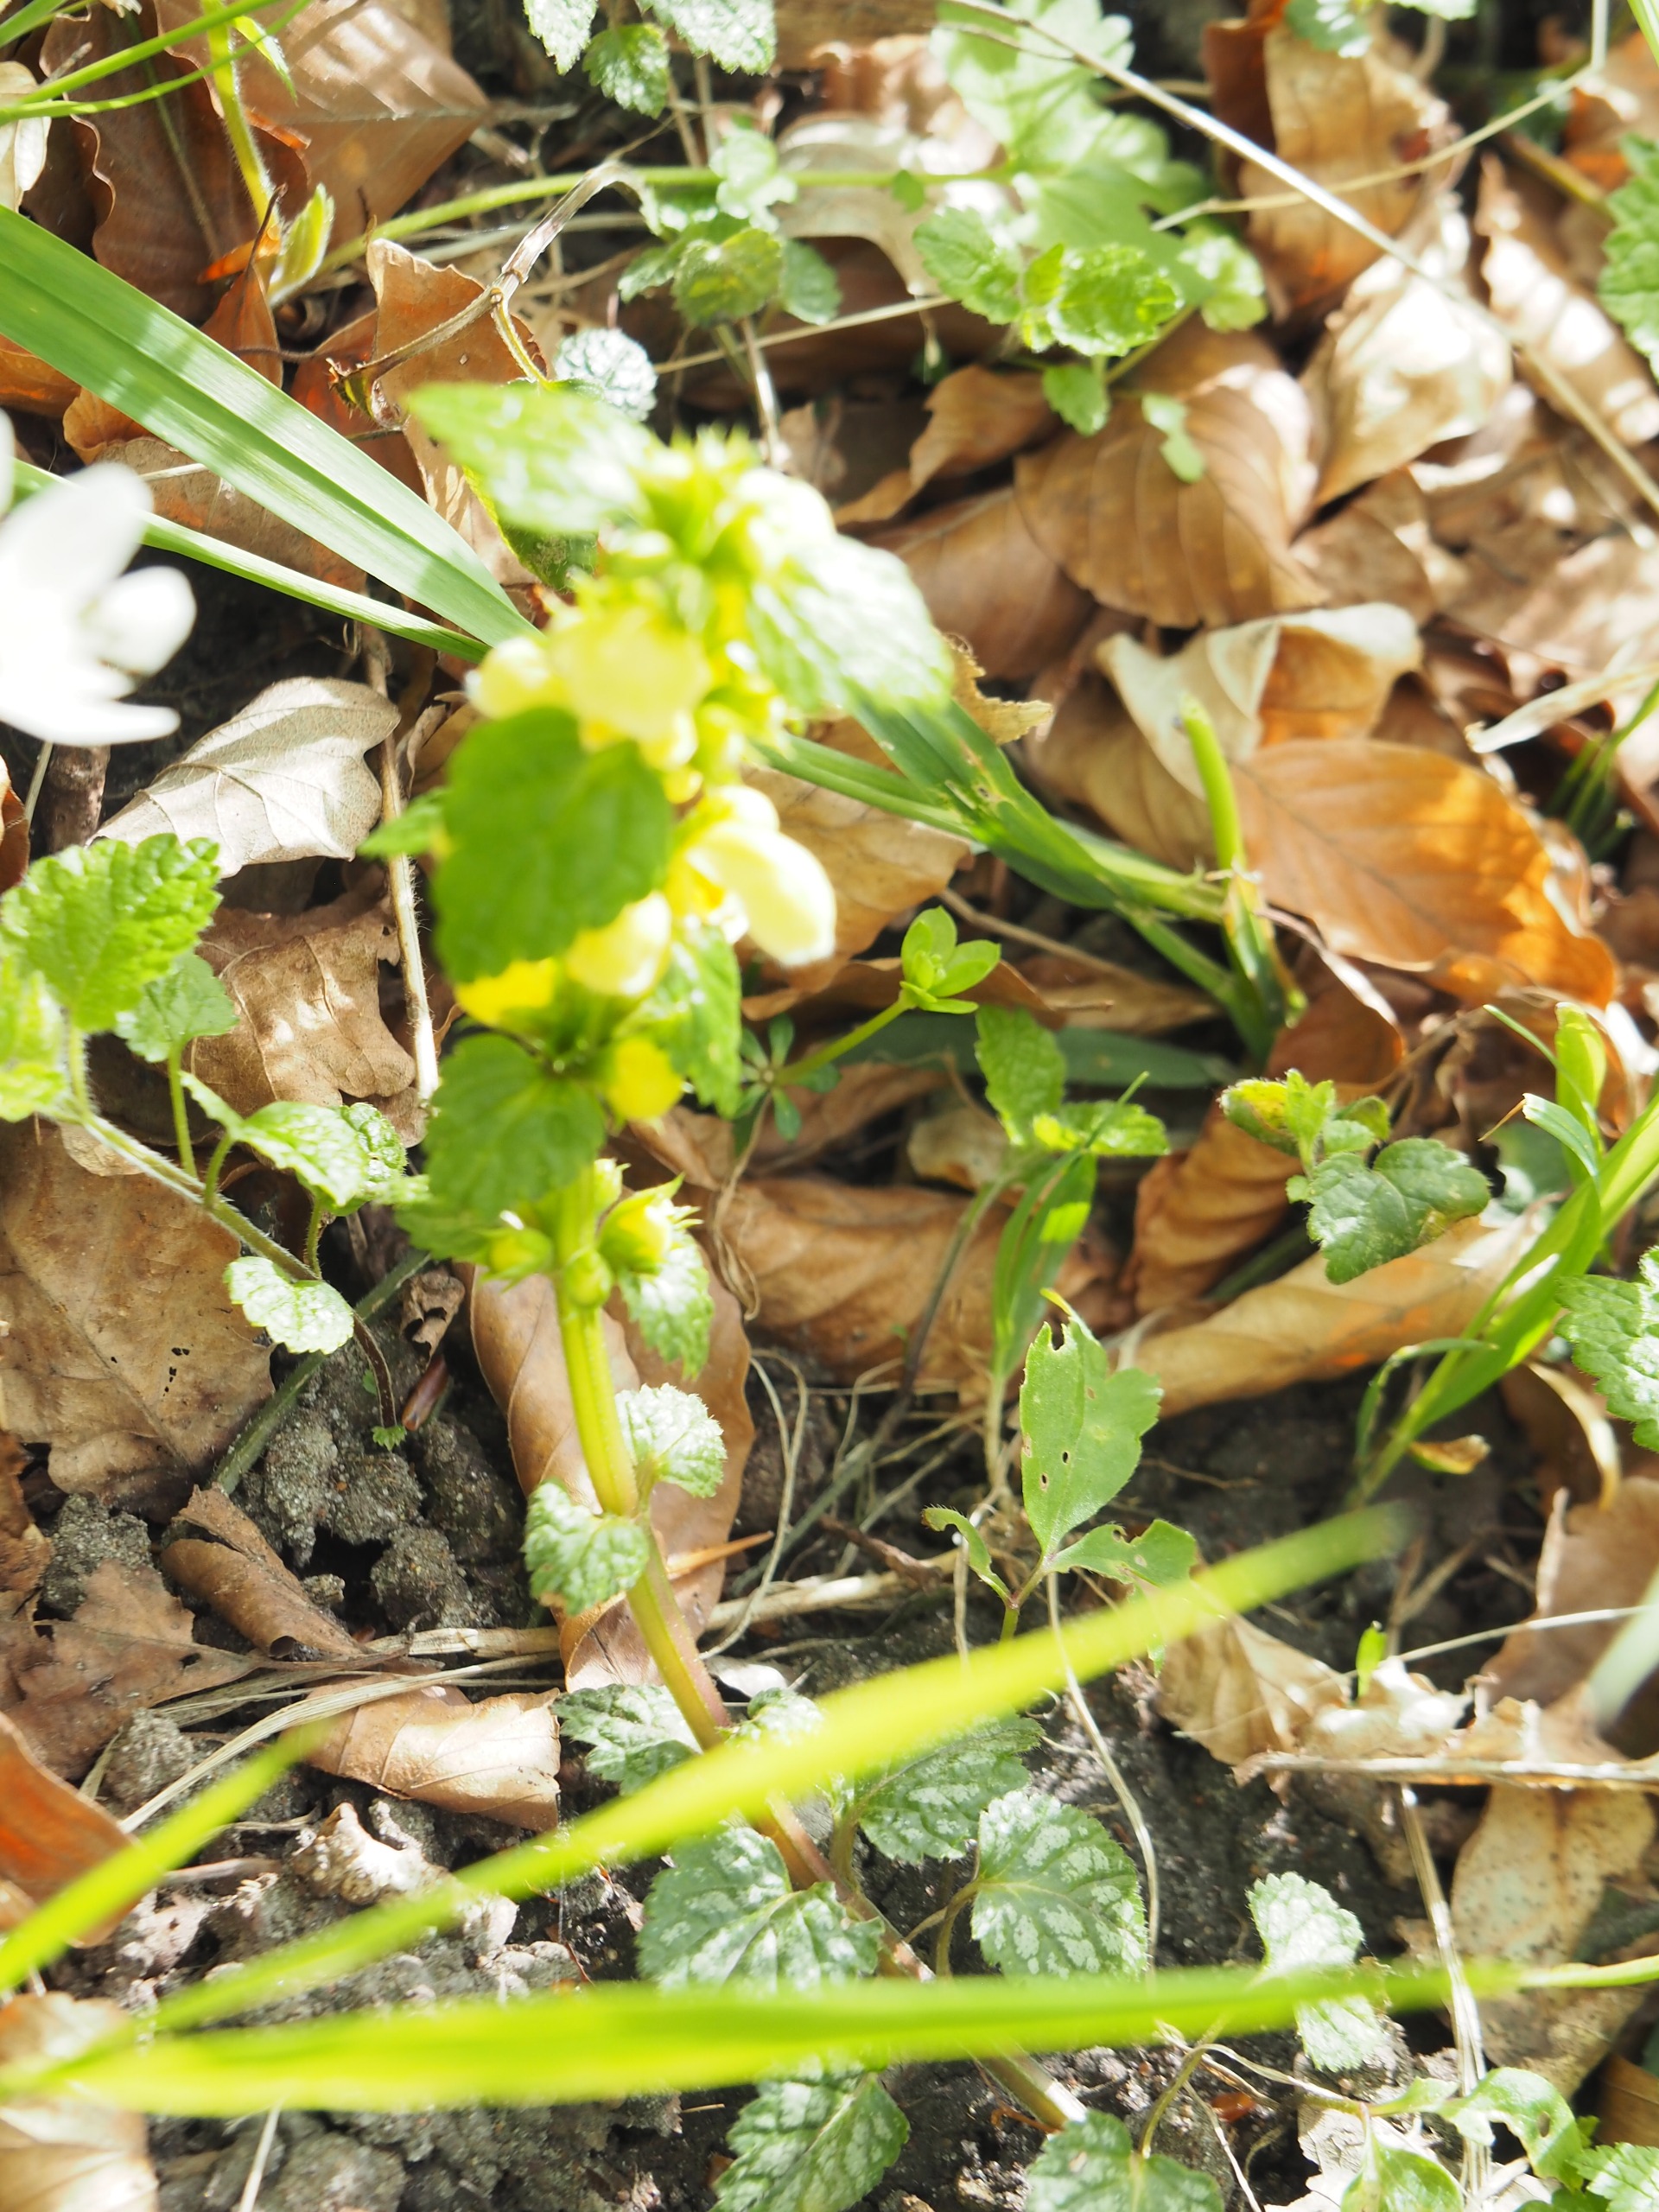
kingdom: Plantae
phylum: Tracheophyta
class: Magnoliopsida
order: Lamiales
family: Lamiaceae
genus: Lamium
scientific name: Lamium galeobdolon
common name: Guldnælde
